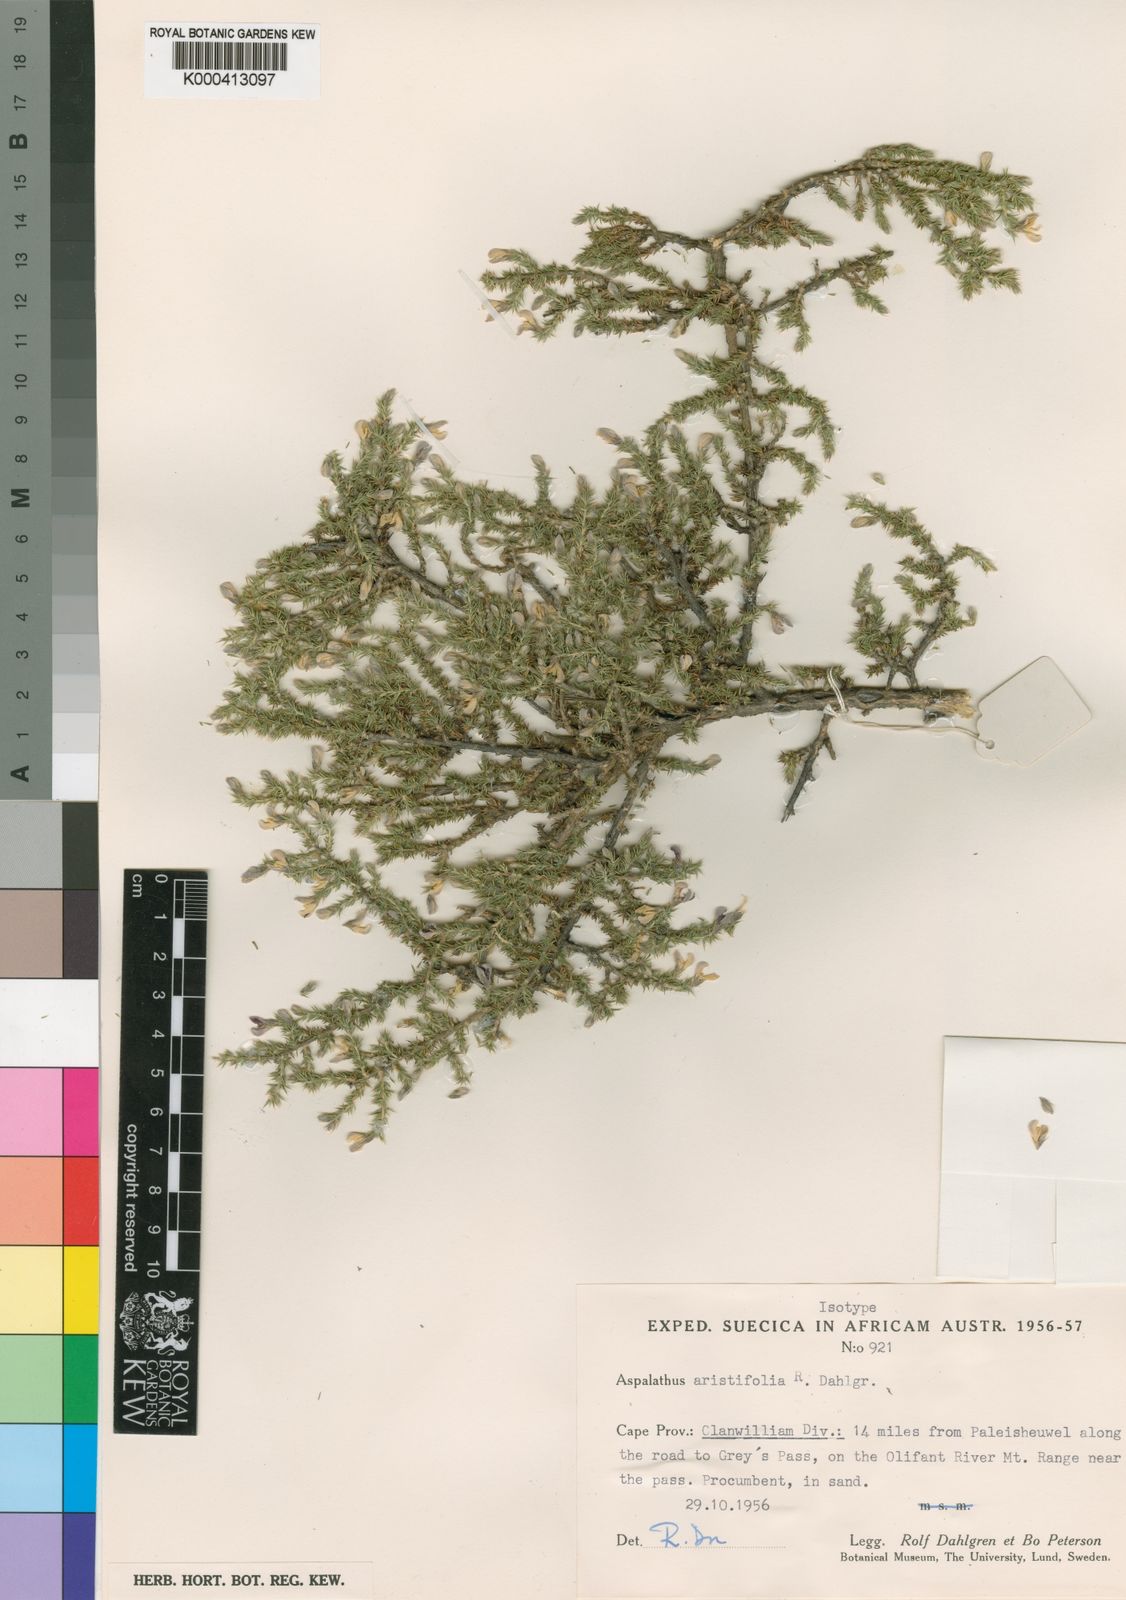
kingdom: Plantae
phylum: Tracheophyta
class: Magnoliopsida
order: Fabales
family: Fabaceae
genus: Aspalathus
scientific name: Aspalathus aristifolia
